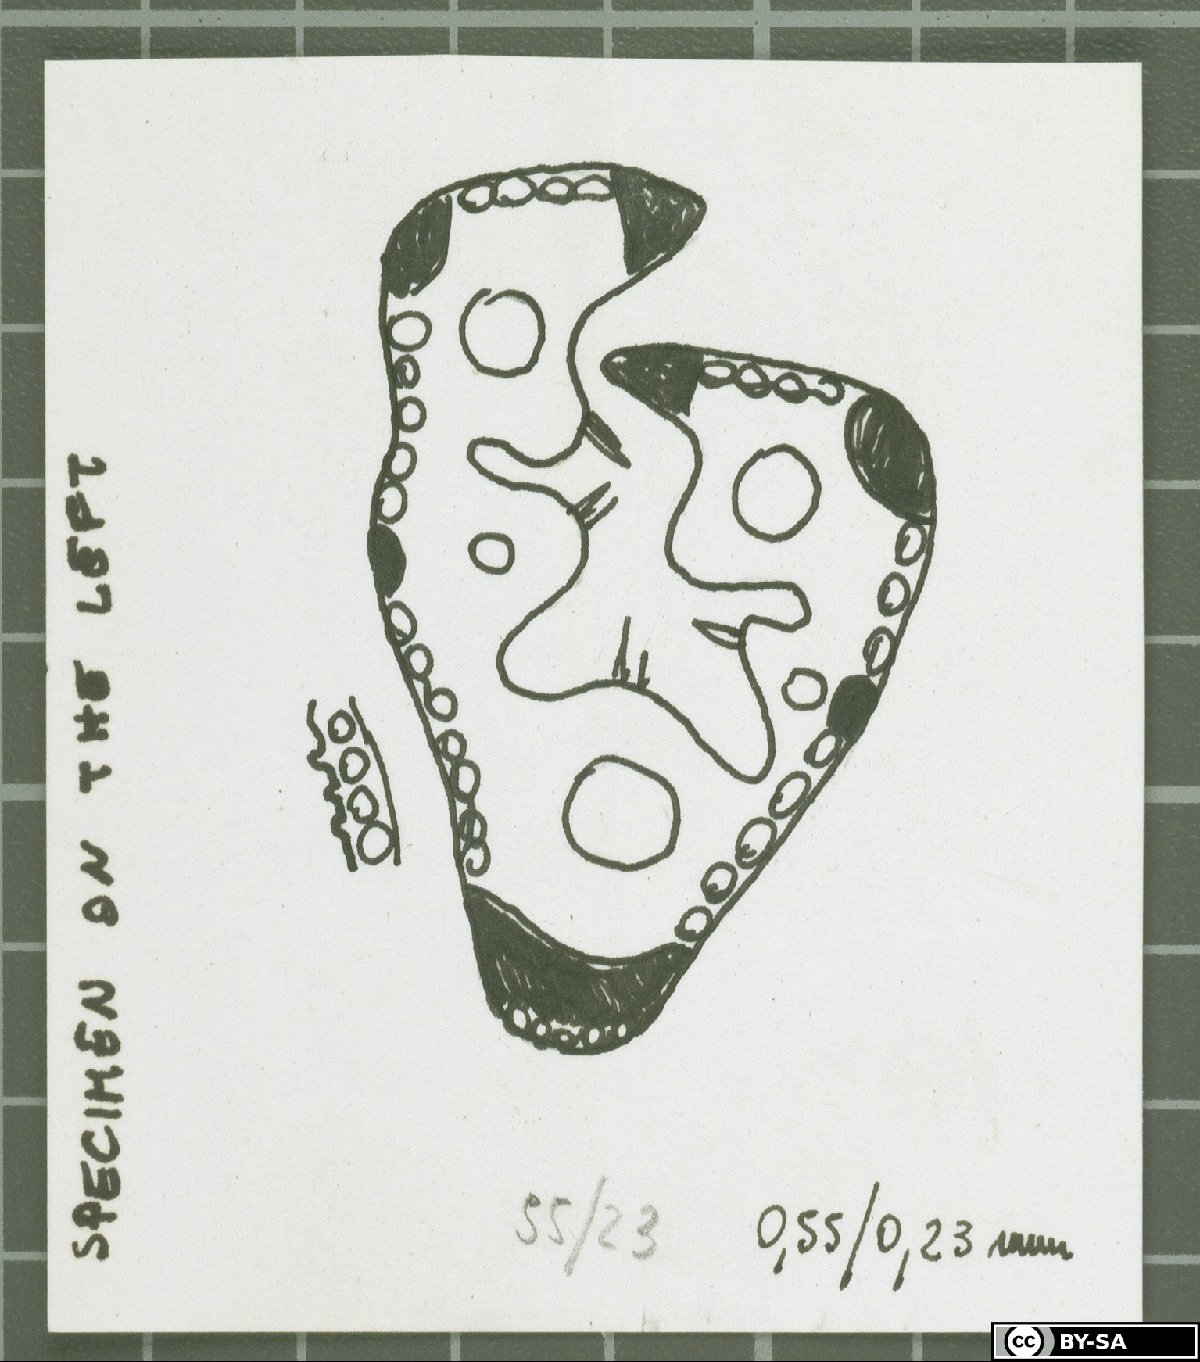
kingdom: Plantae
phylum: Tracheophyta
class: Liliopsida
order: Poales
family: Poaceae
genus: Festuca
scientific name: Festuca cyrnea
